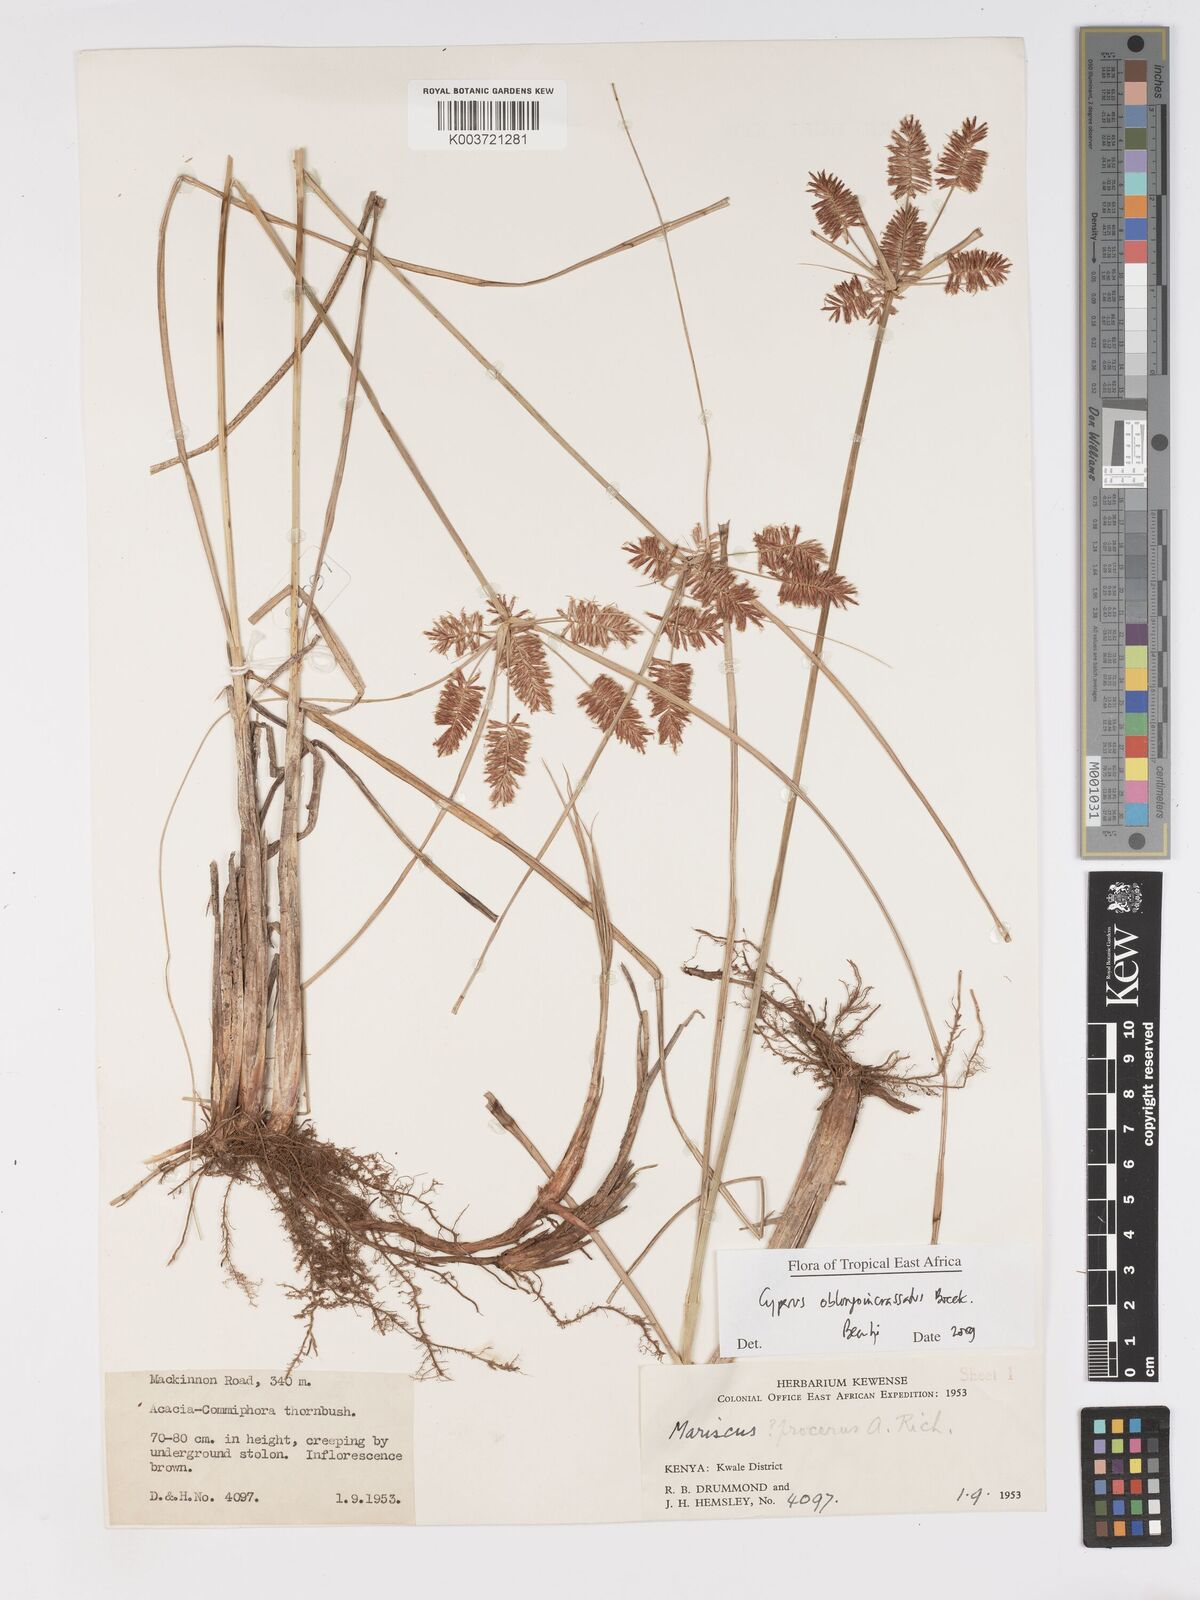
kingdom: Plantae
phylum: Tracheophyta
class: Liliopsida
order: Poales
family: Cyperaceae
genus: Cyperus
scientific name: Cyperus oblongoincrassatus
